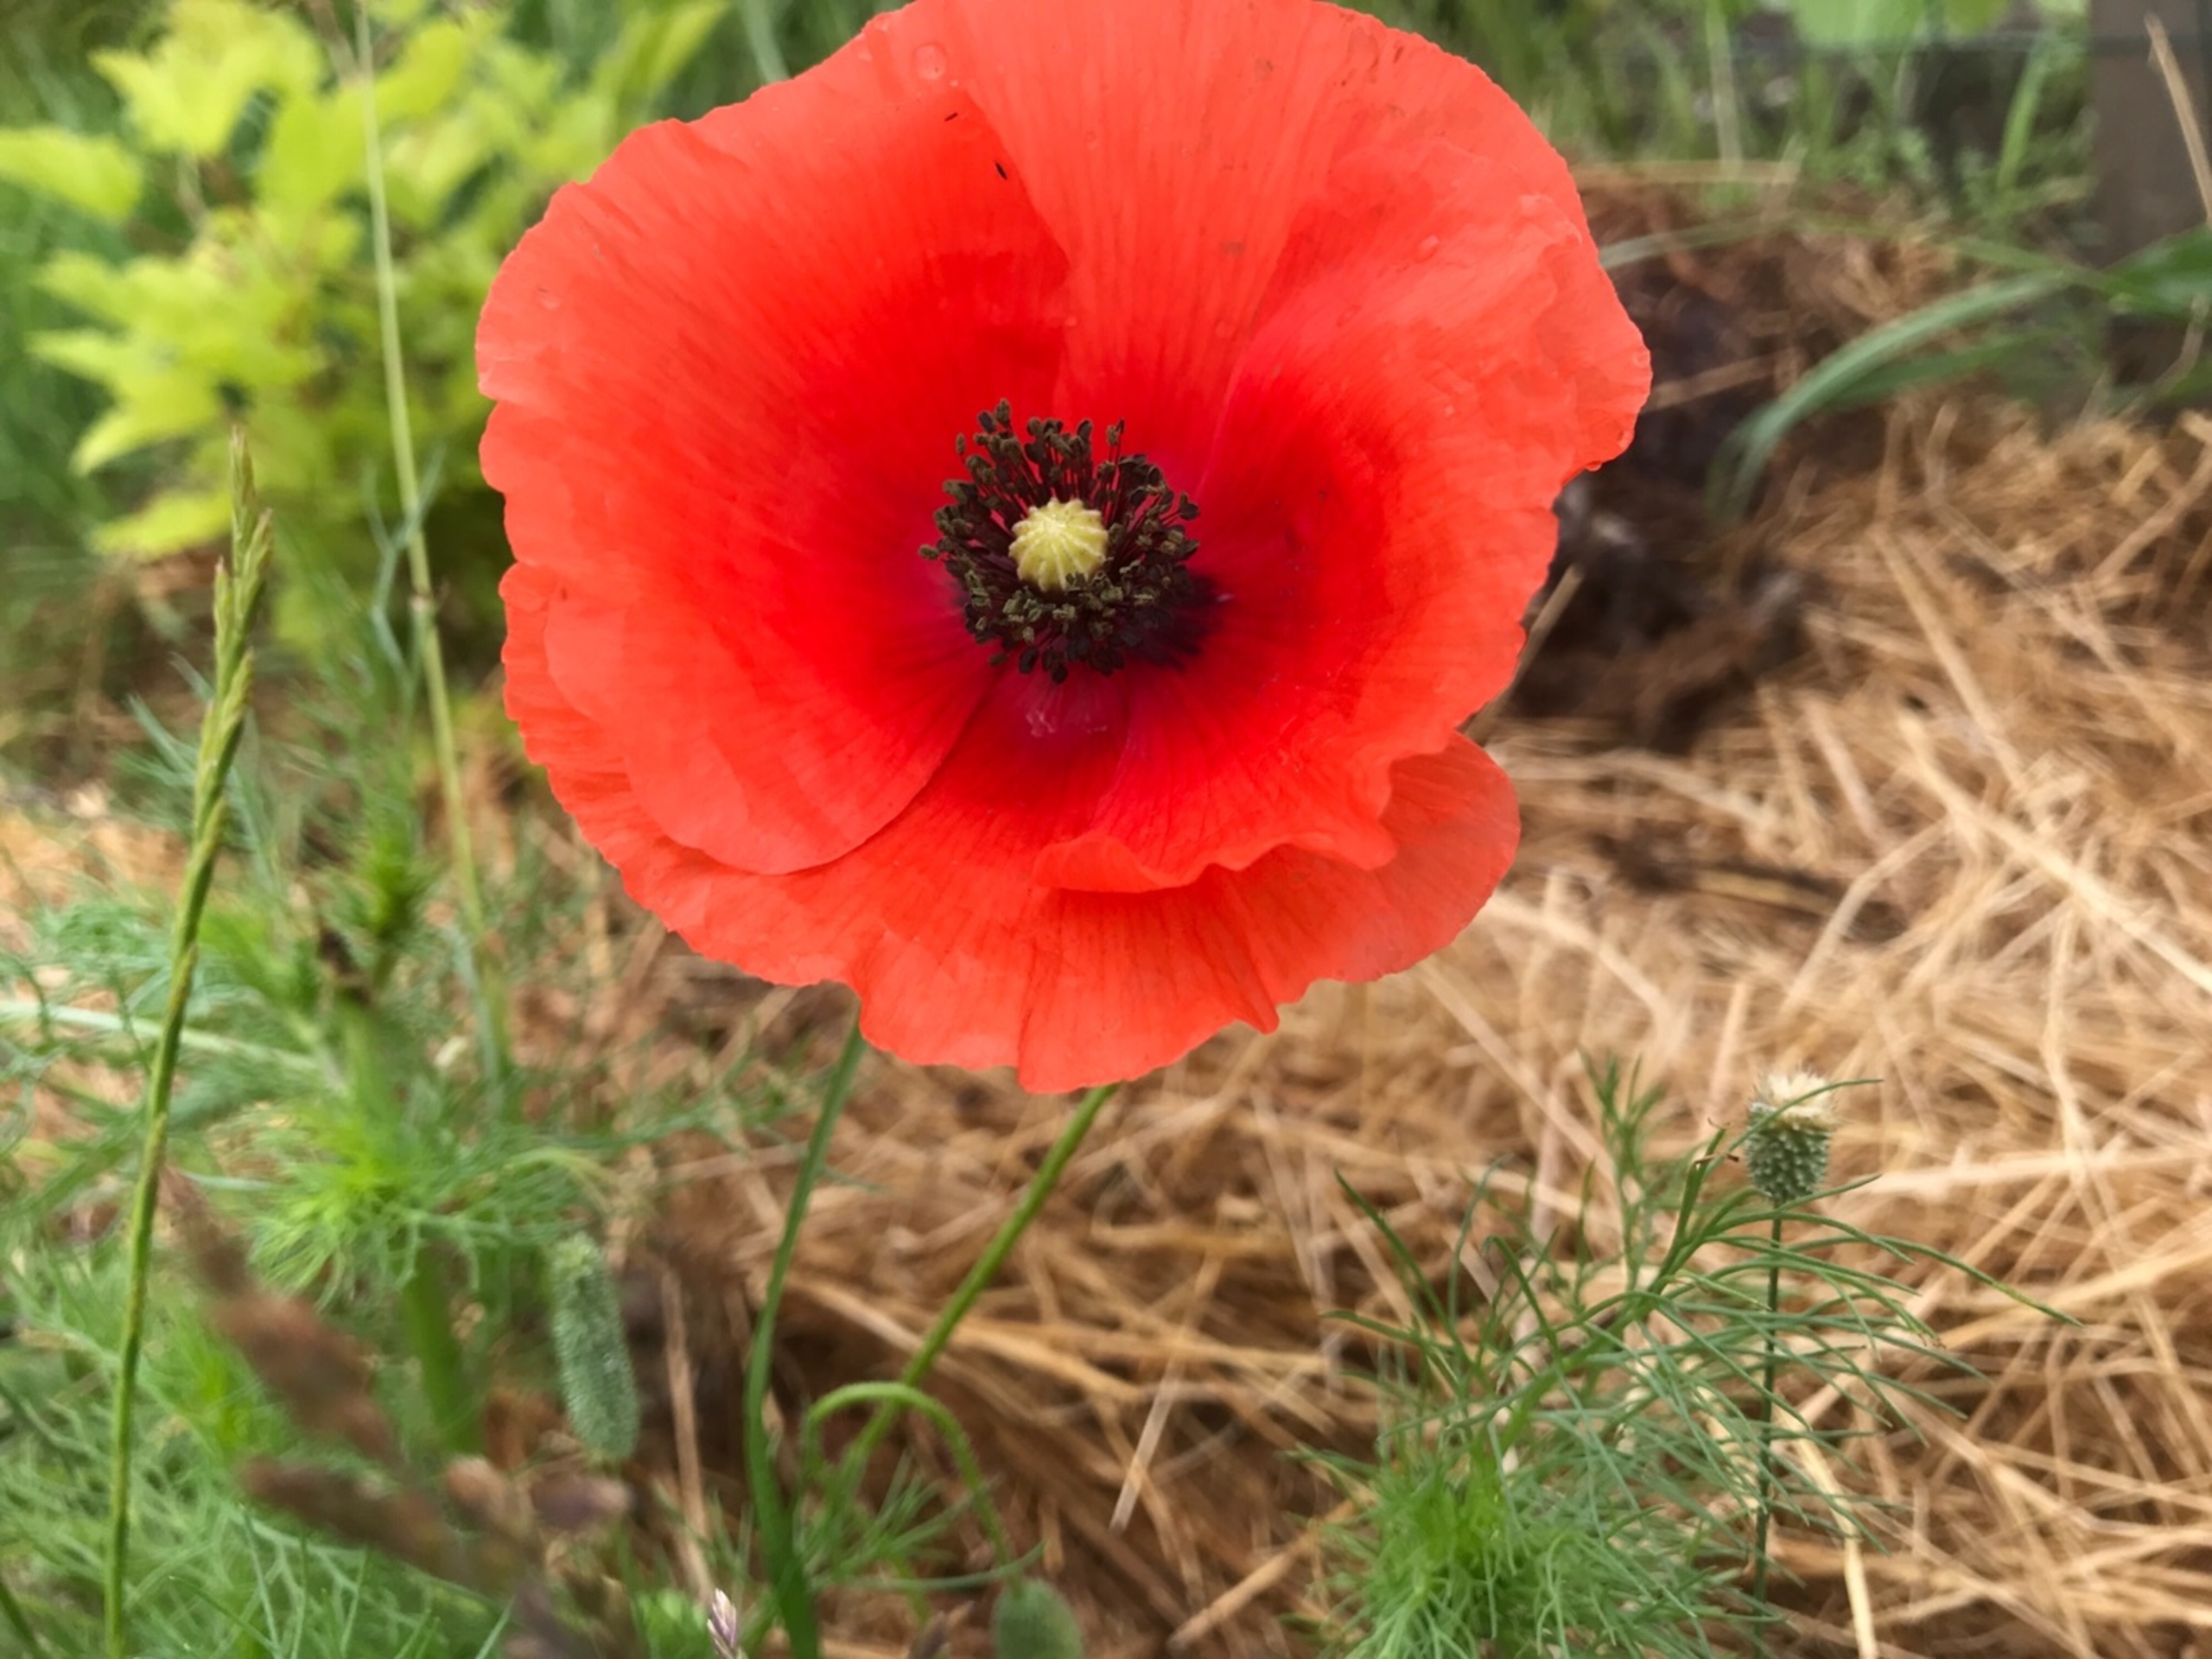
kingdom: Plantae
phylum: Tracheophyta
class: Magnoliopsida
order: Ranunculales
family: Papaveraceae
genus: Papaver
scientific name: Papaver rhoeas
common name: Korn-valmue
